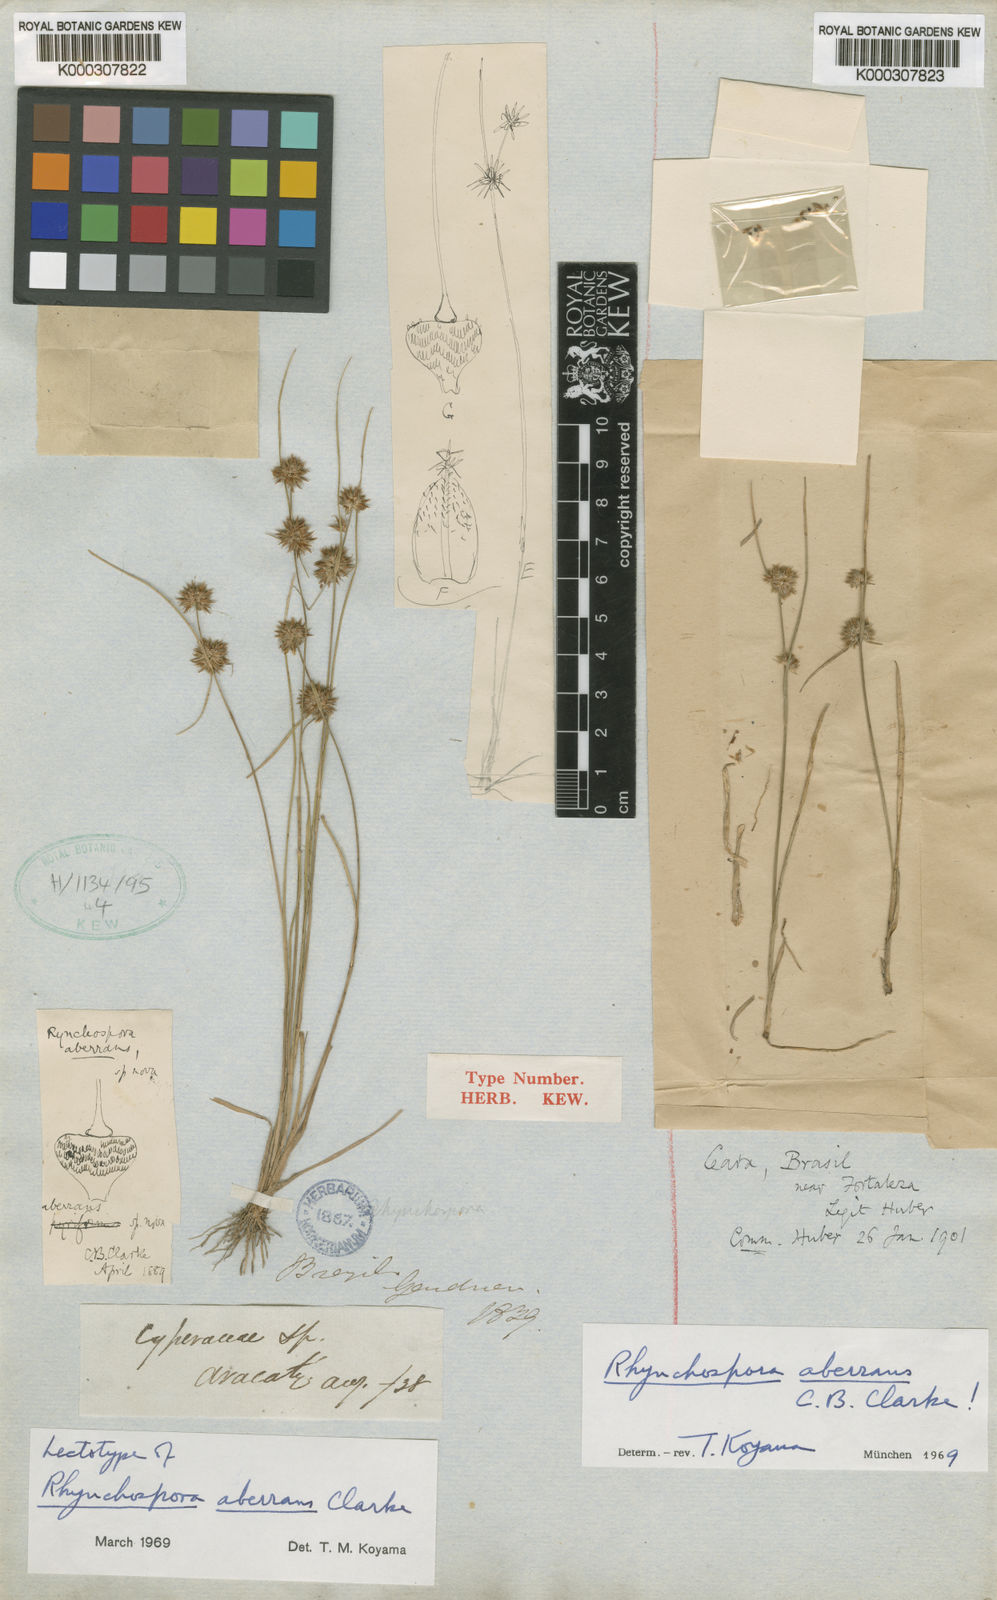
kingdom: Plantae
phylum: Tracheophyta
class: Liliopsida
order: Poales
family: Cyperaceae
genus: Rhynchospora
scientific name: Rhynchospora aberrans
